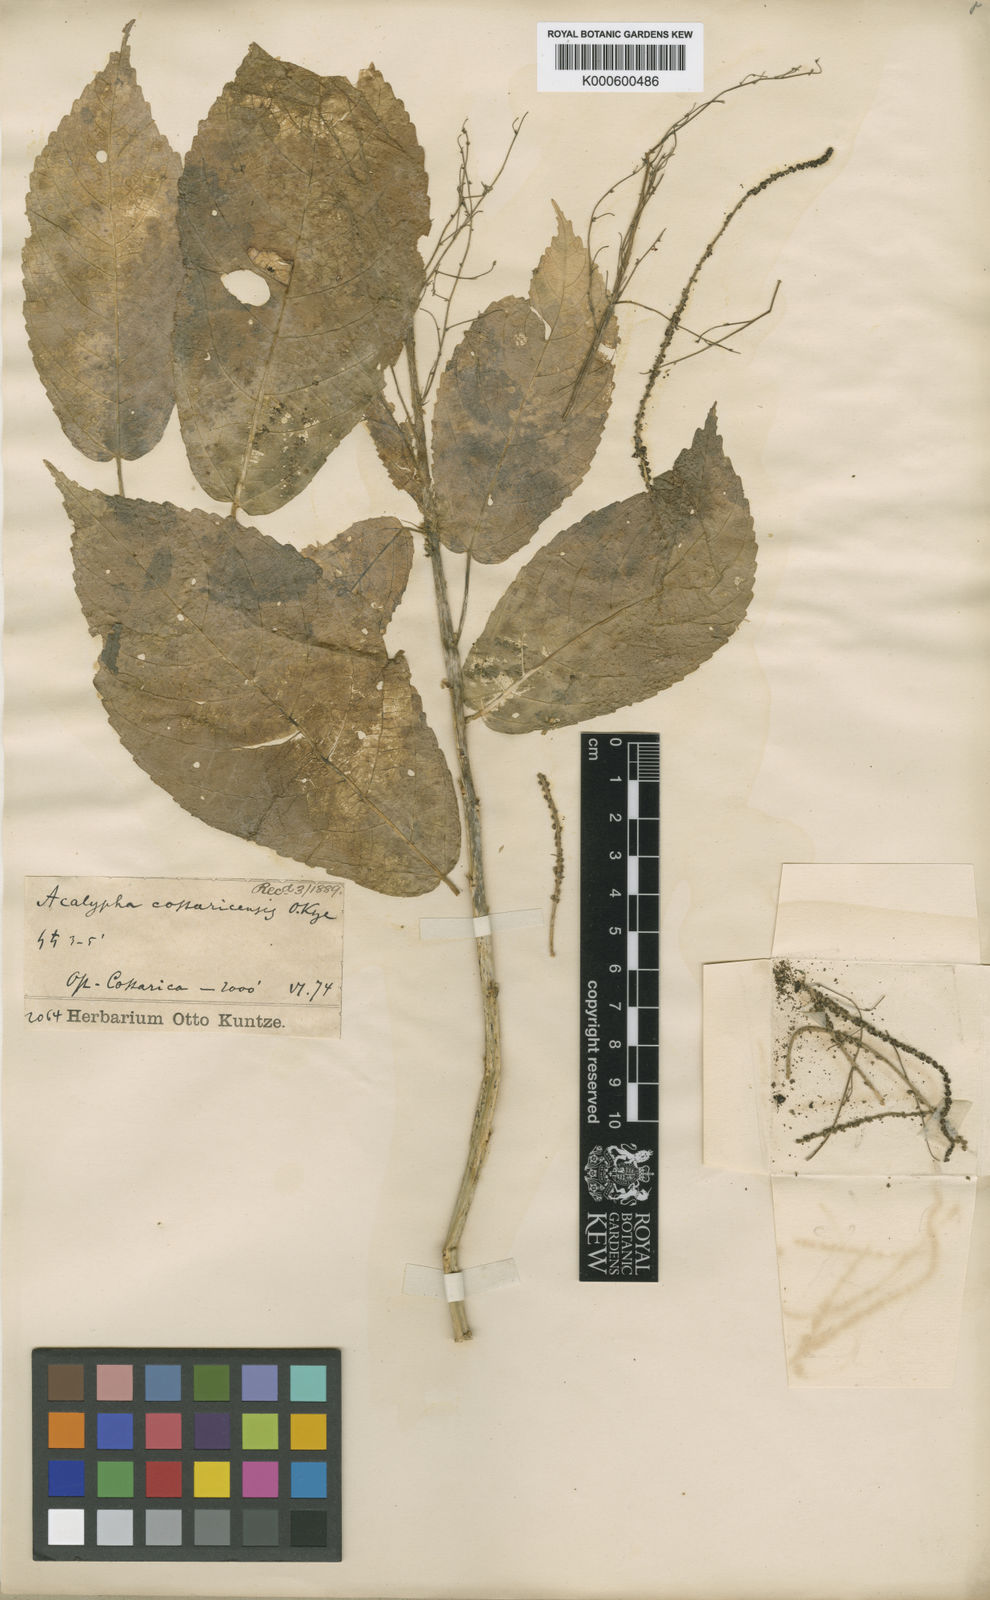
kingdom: Plantae
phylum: Tracheophyta
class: Magnoliopsida
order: Malpighiales
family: Euphorbiaceae
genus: Acalypha
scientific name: Acalypha
